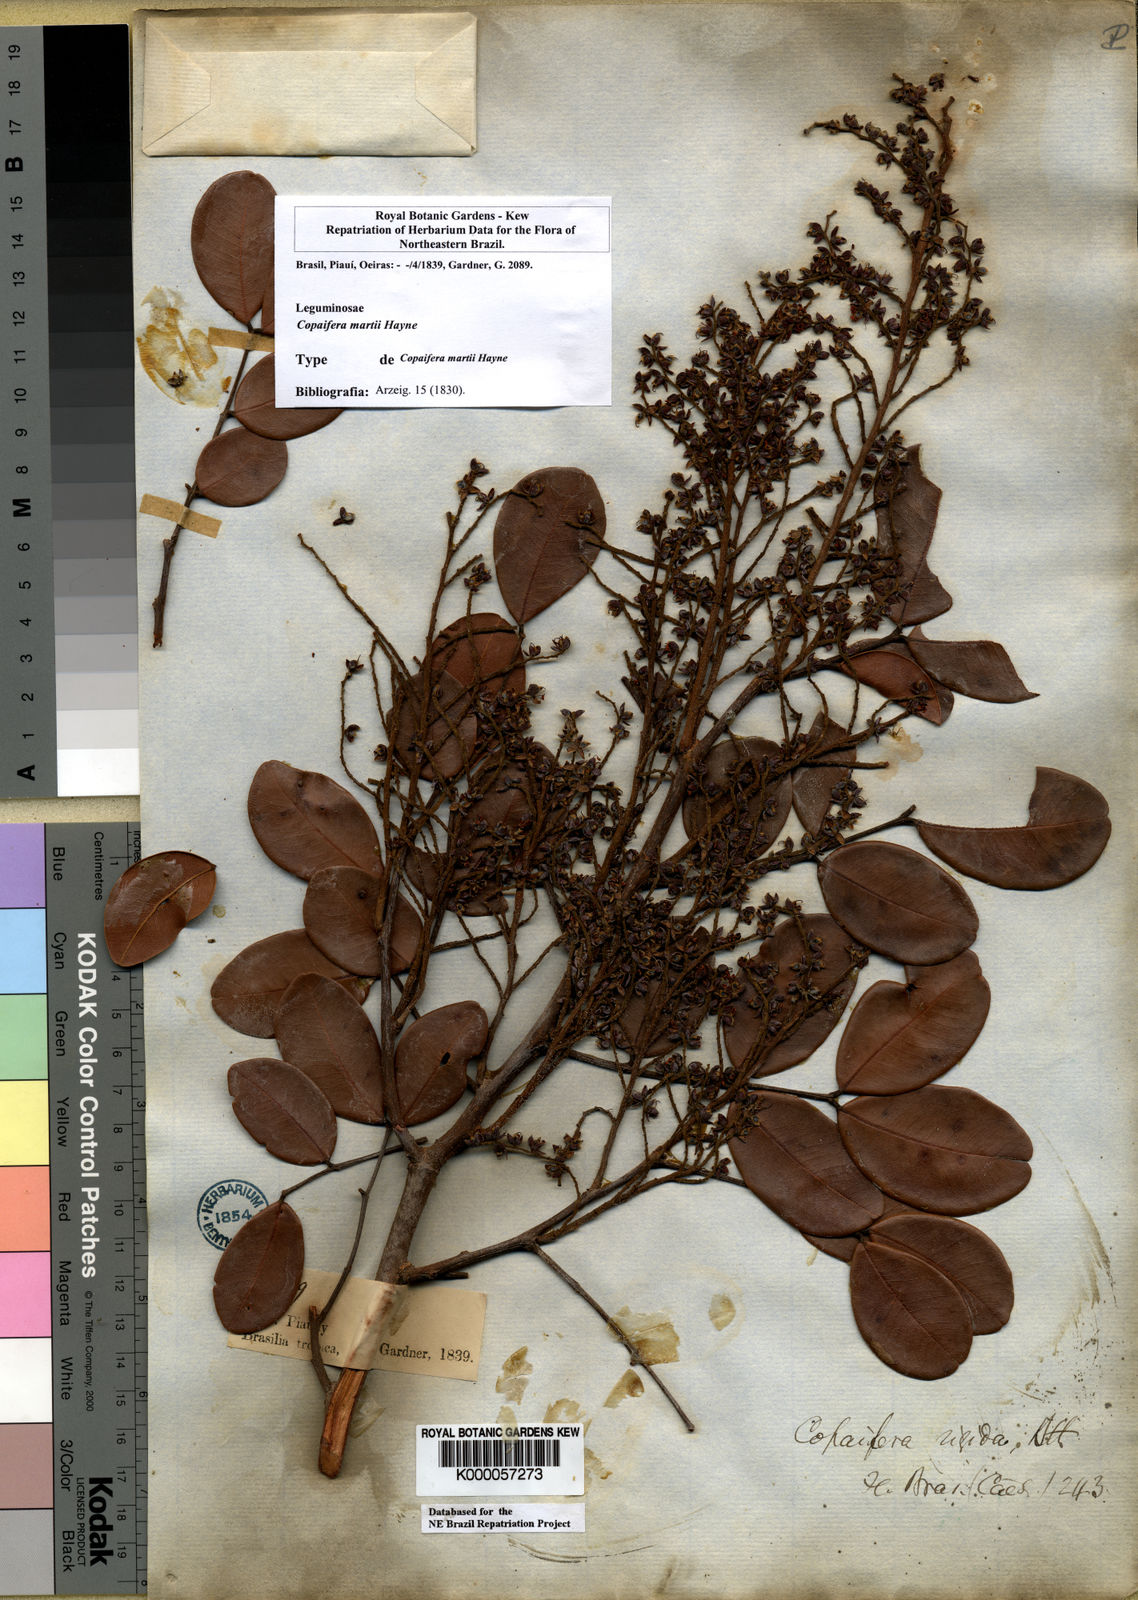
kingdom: Plantae
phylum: Tracheophyta
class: Magnoliopsida
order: Fabales
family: Fabaceae
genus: Copaifera
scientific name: Copaifera martii
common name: Copaiba
